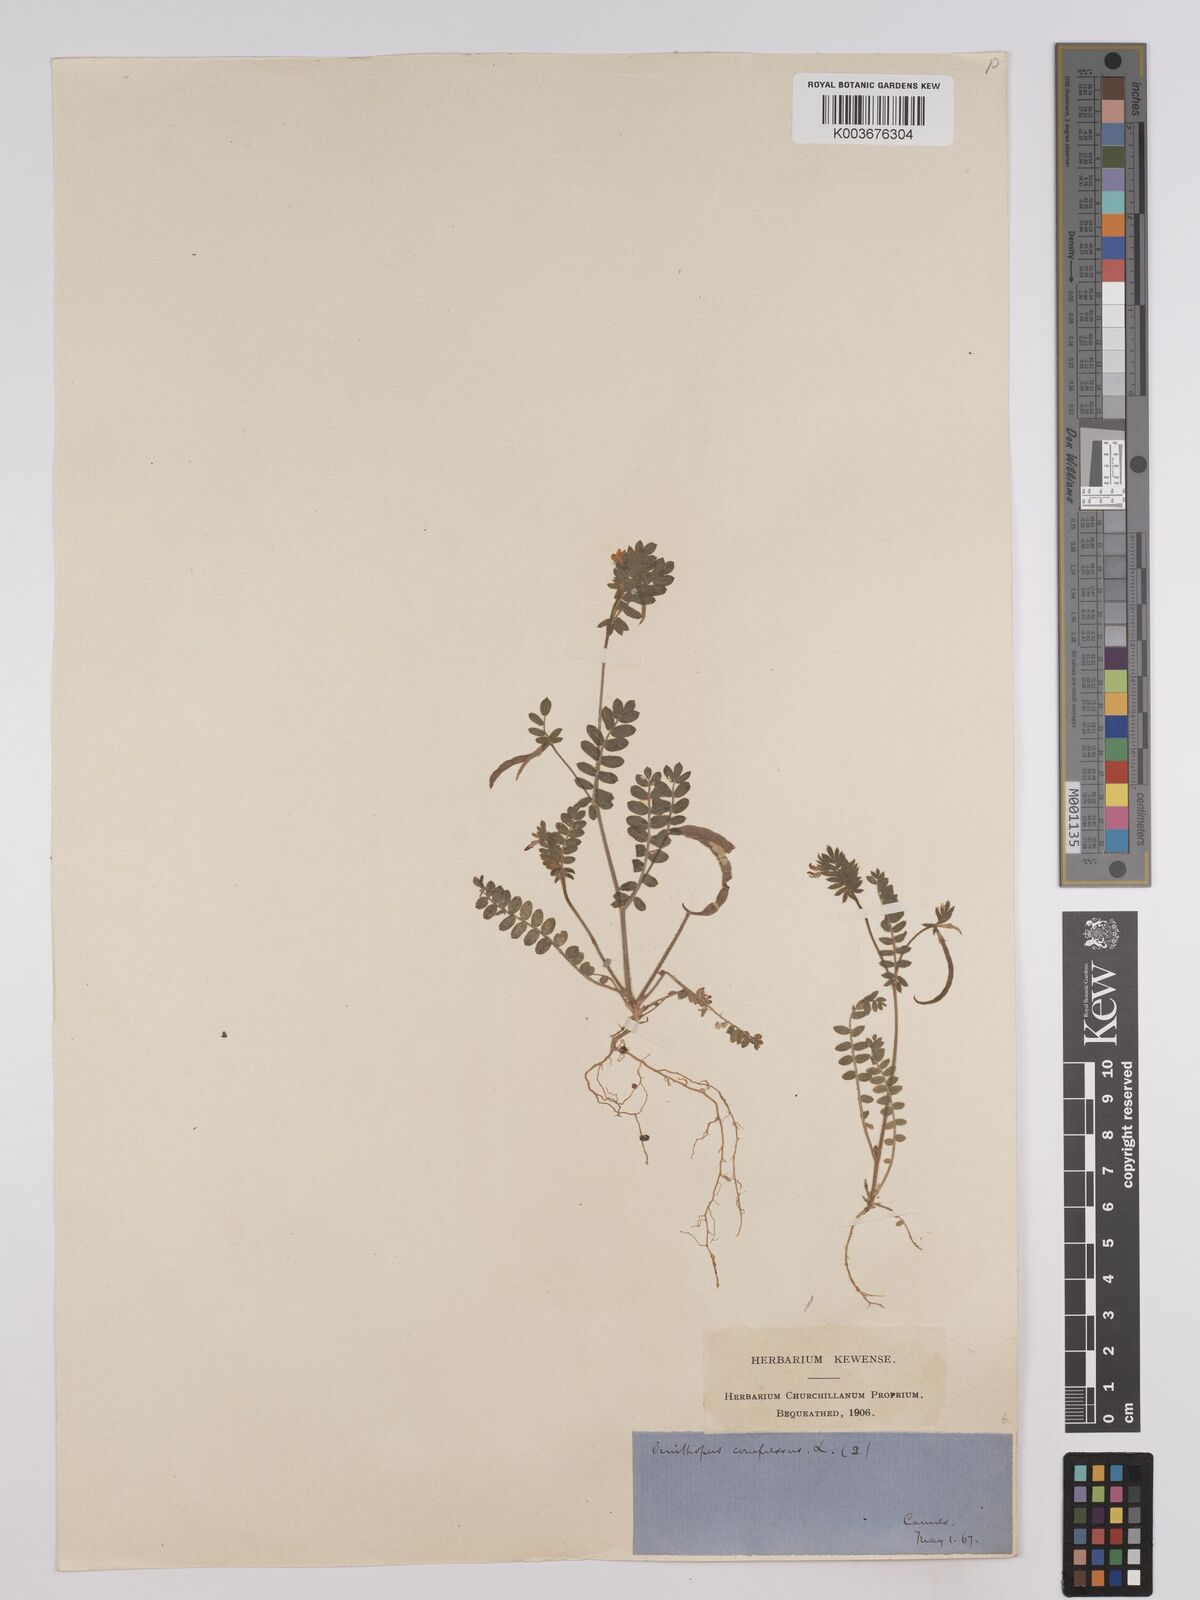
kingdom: Plantae
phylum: Tracheophyta
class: Magnoliopsida
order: Fabales
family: Fabaceae
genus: Ornithopus
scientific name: Ornithopus compressus
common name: Yellow serradella
